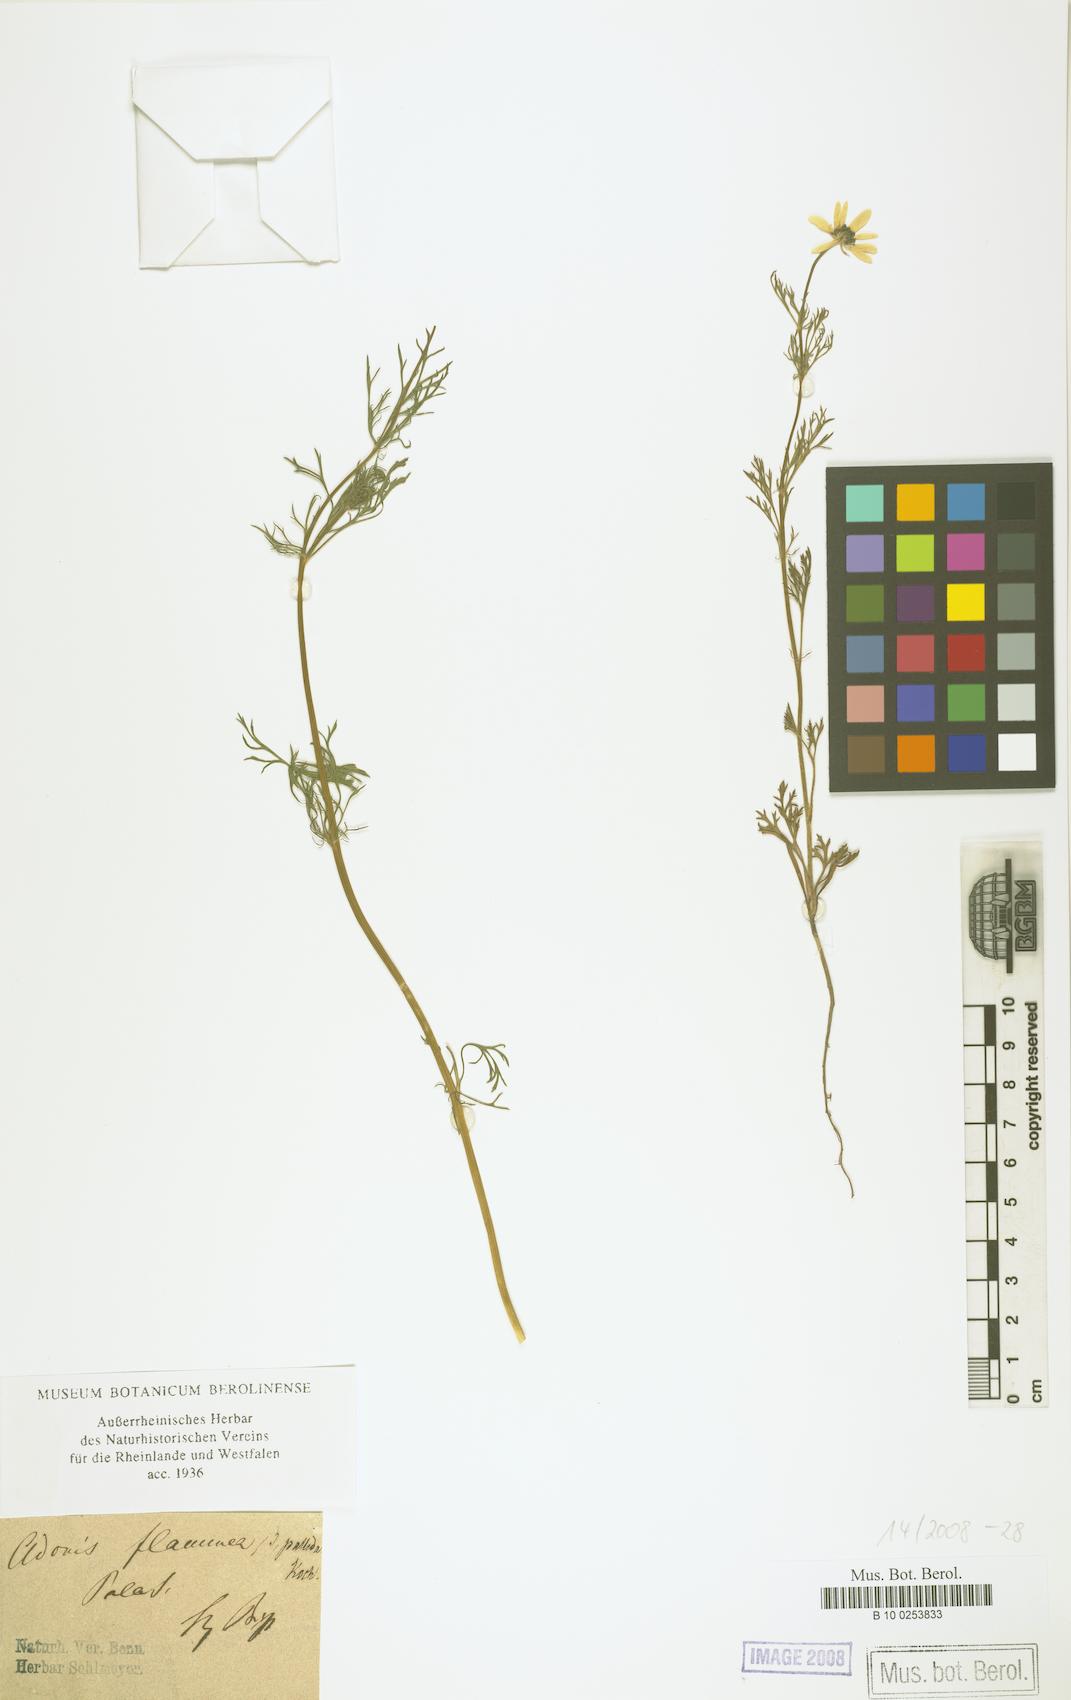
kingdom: Plantae
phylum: Tracheophyta
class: Magnoliopsida
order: Ranunculales
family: Ranunculaceae
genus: Adonis
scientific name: Adonis flammea
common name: Large pheasant's-eye
